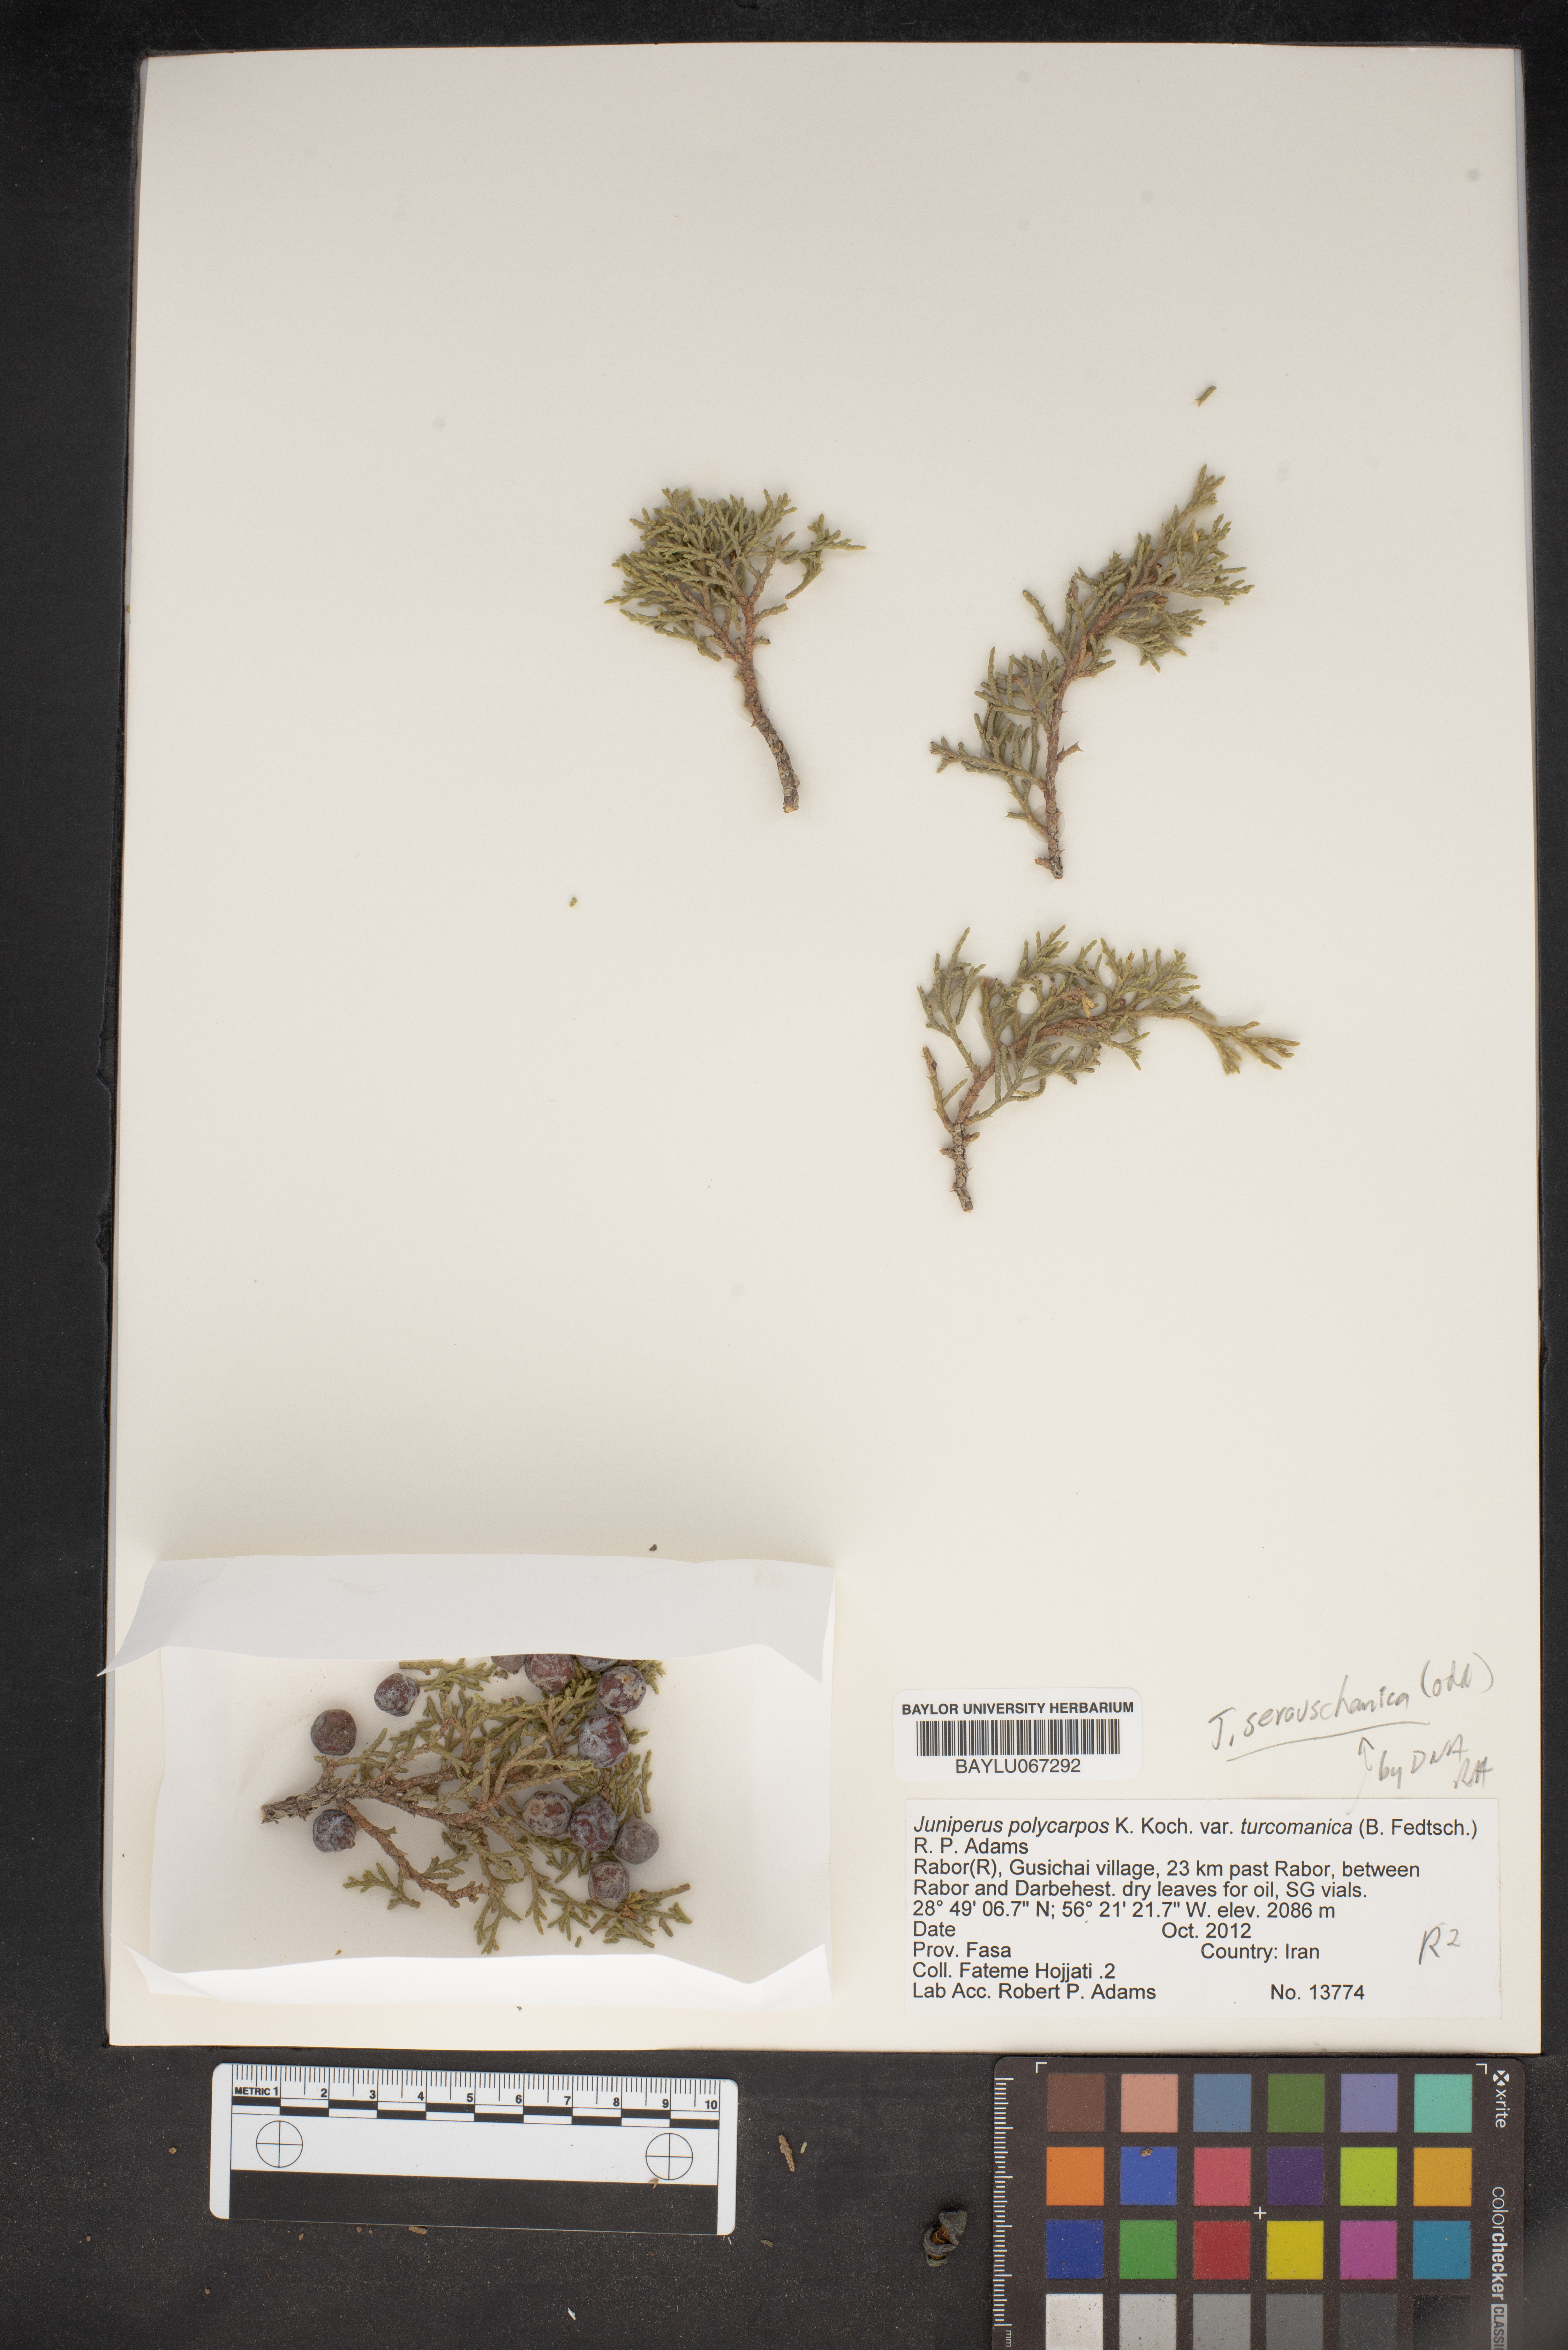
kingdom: Plantae
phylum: Tracheophyta
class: Pinopsida
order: Pinales
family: Cupressaceae
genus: Juniperus
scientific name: Juniperus excelsa
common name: Crimean juniper
